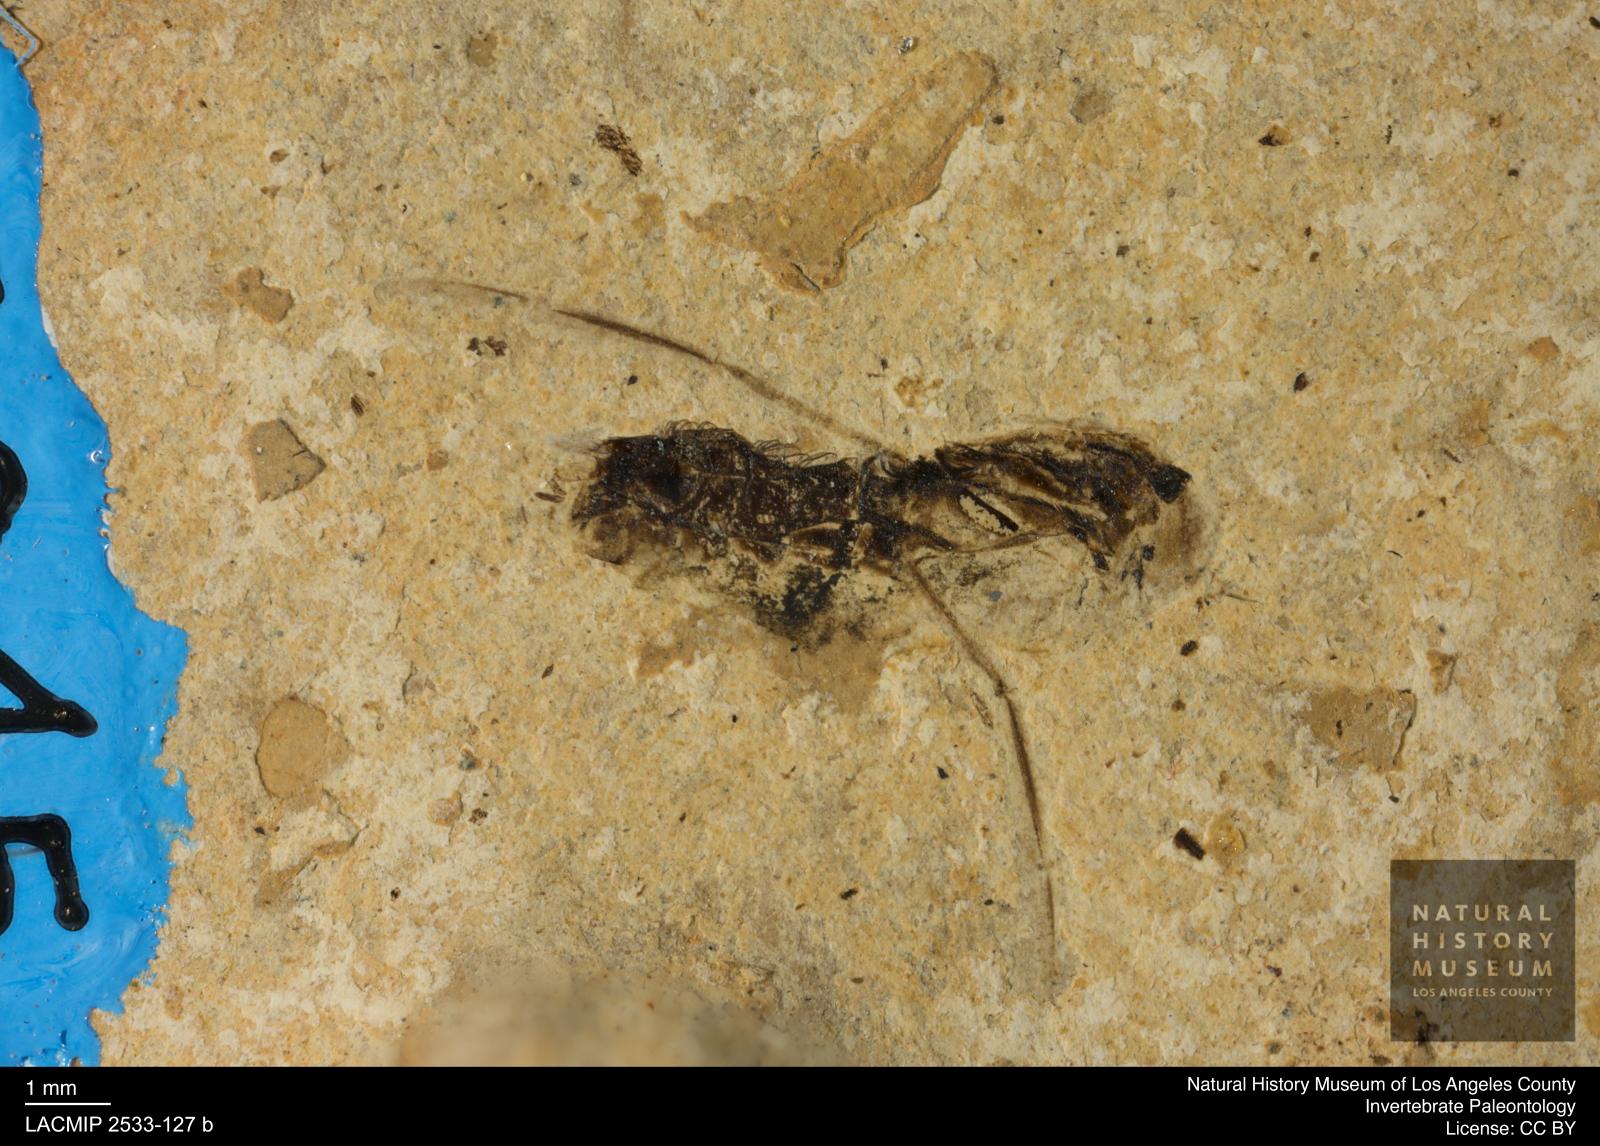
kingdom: Animalia
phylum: Arthropoda
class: Insecta
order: Hemiptera
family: Notonectidae
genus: Anisops
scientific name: Anisops Notonecta heydeni
